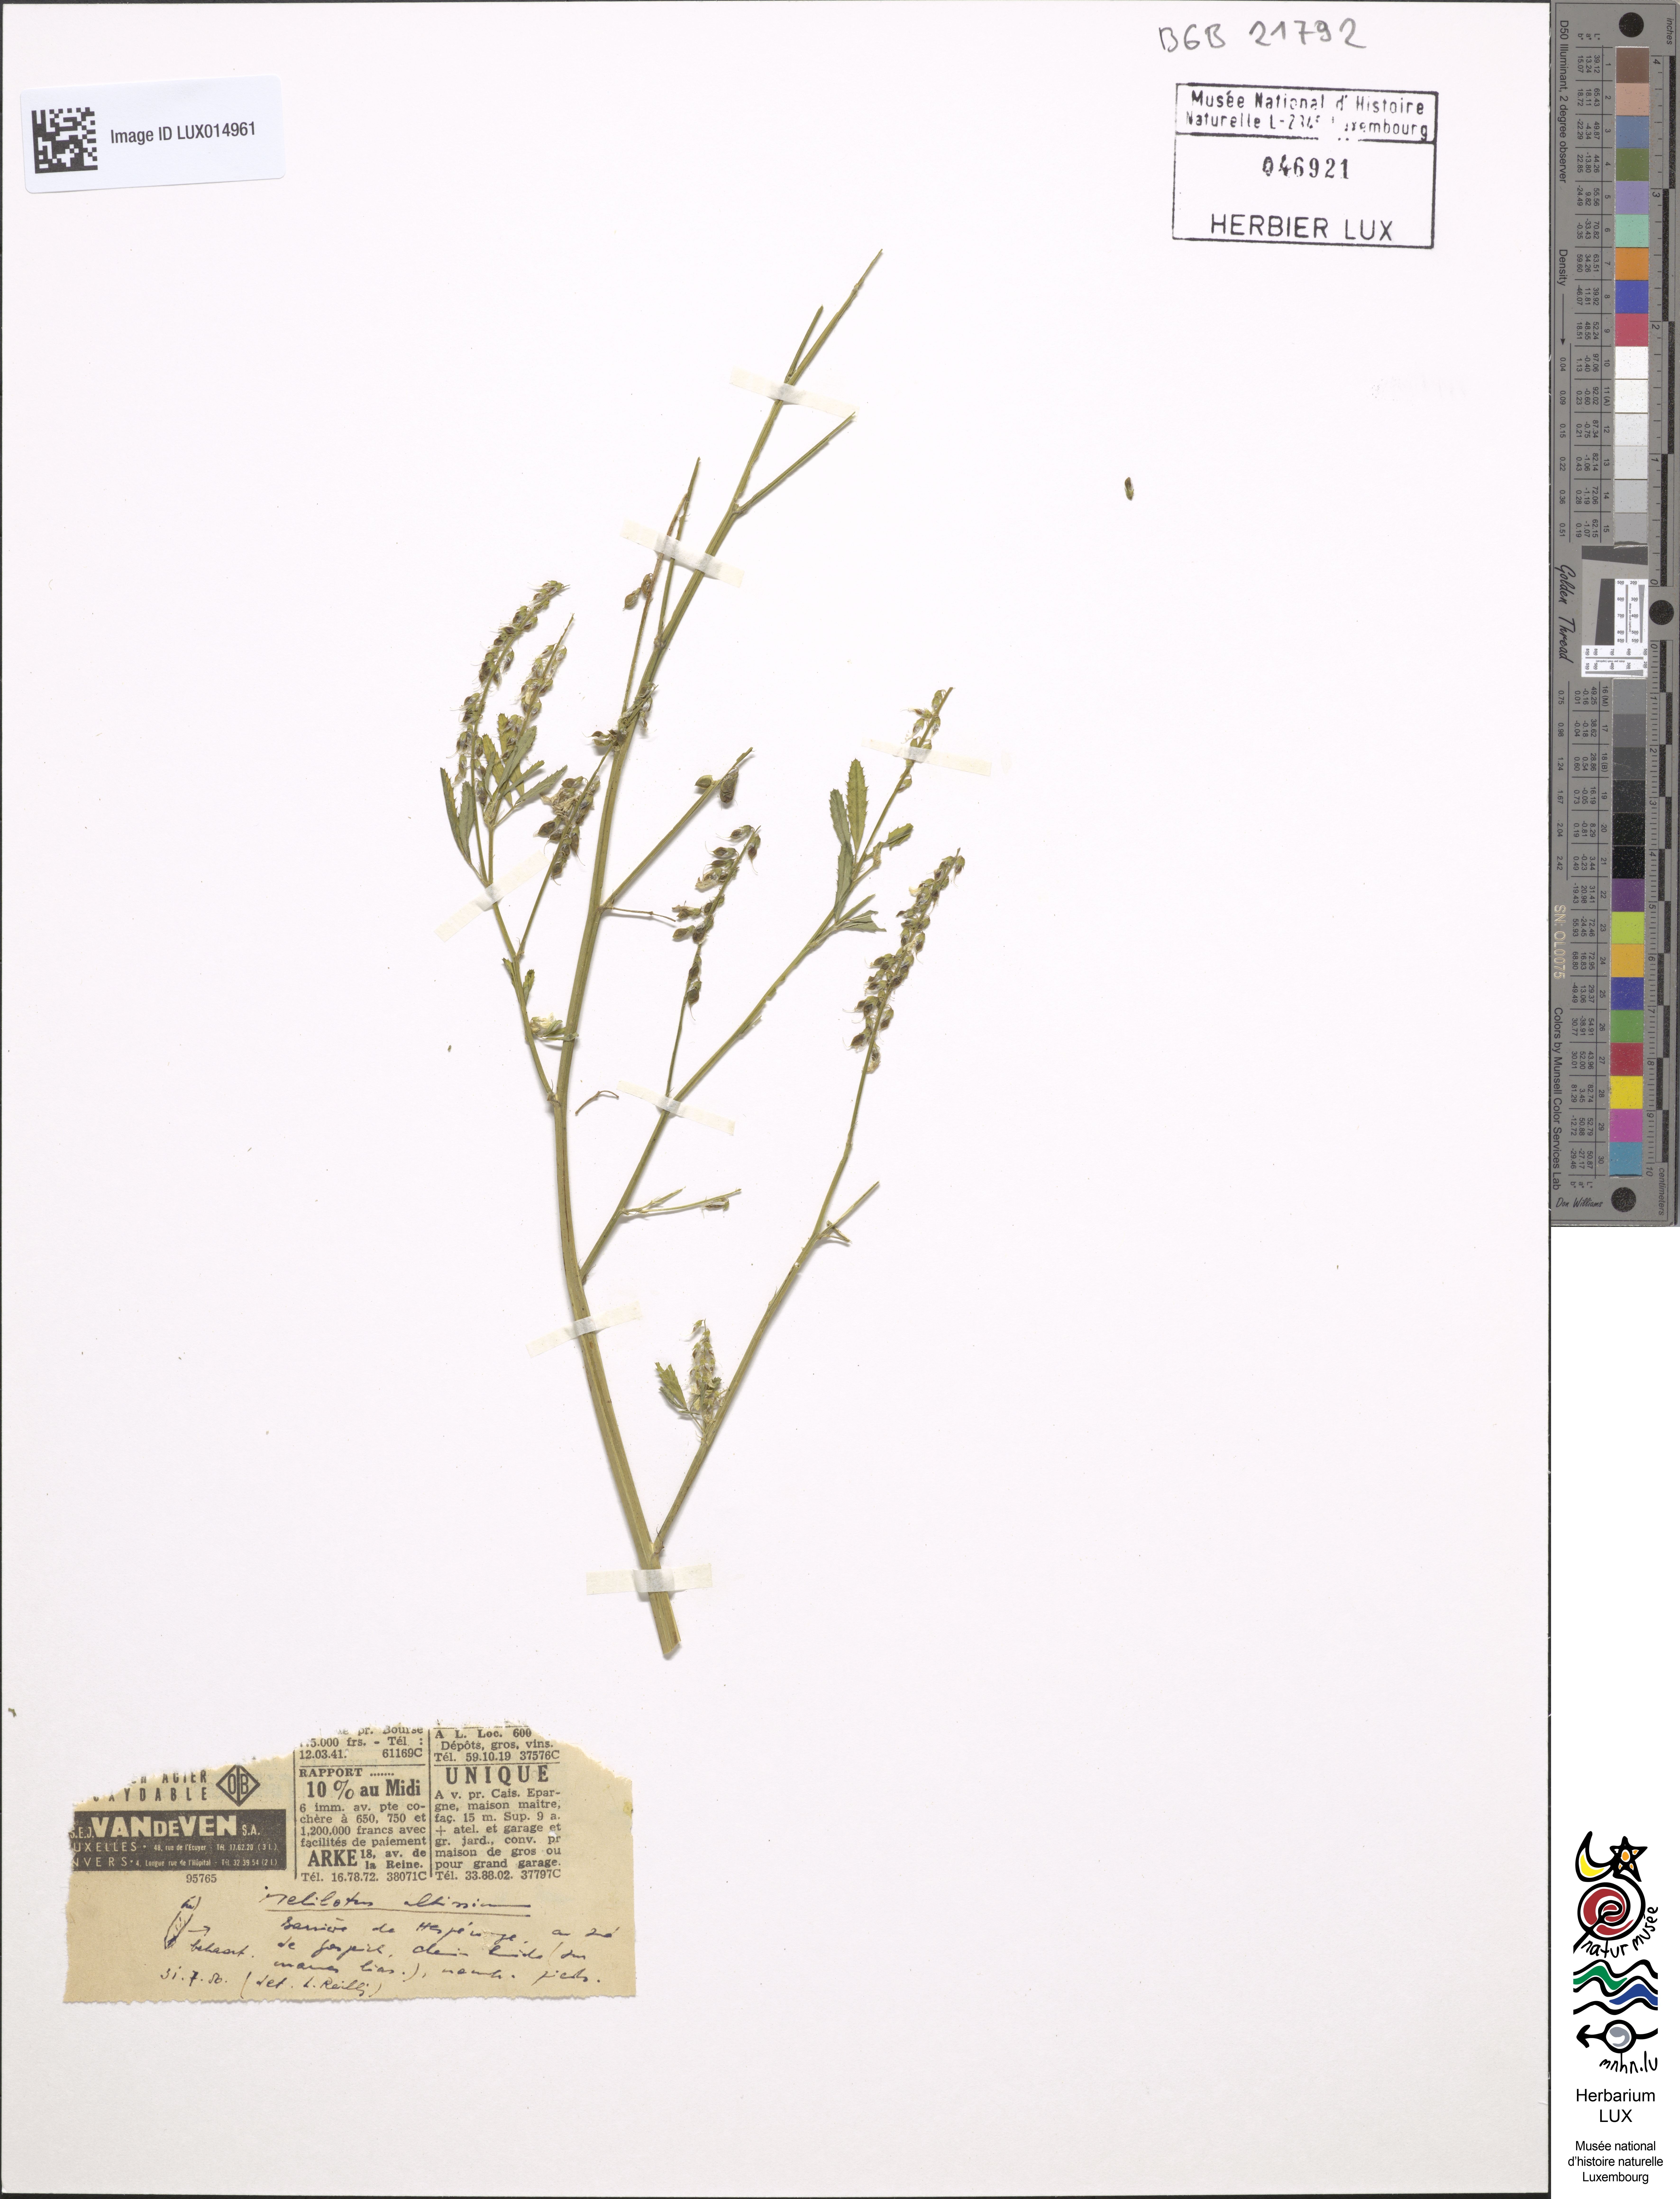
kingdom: Plantae
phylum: Tracheophyta
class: Magnoliopsida
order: Fabales
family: Fabaceae
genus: Melilotus
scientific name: Melilotus altissimus
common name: Tall melilot
